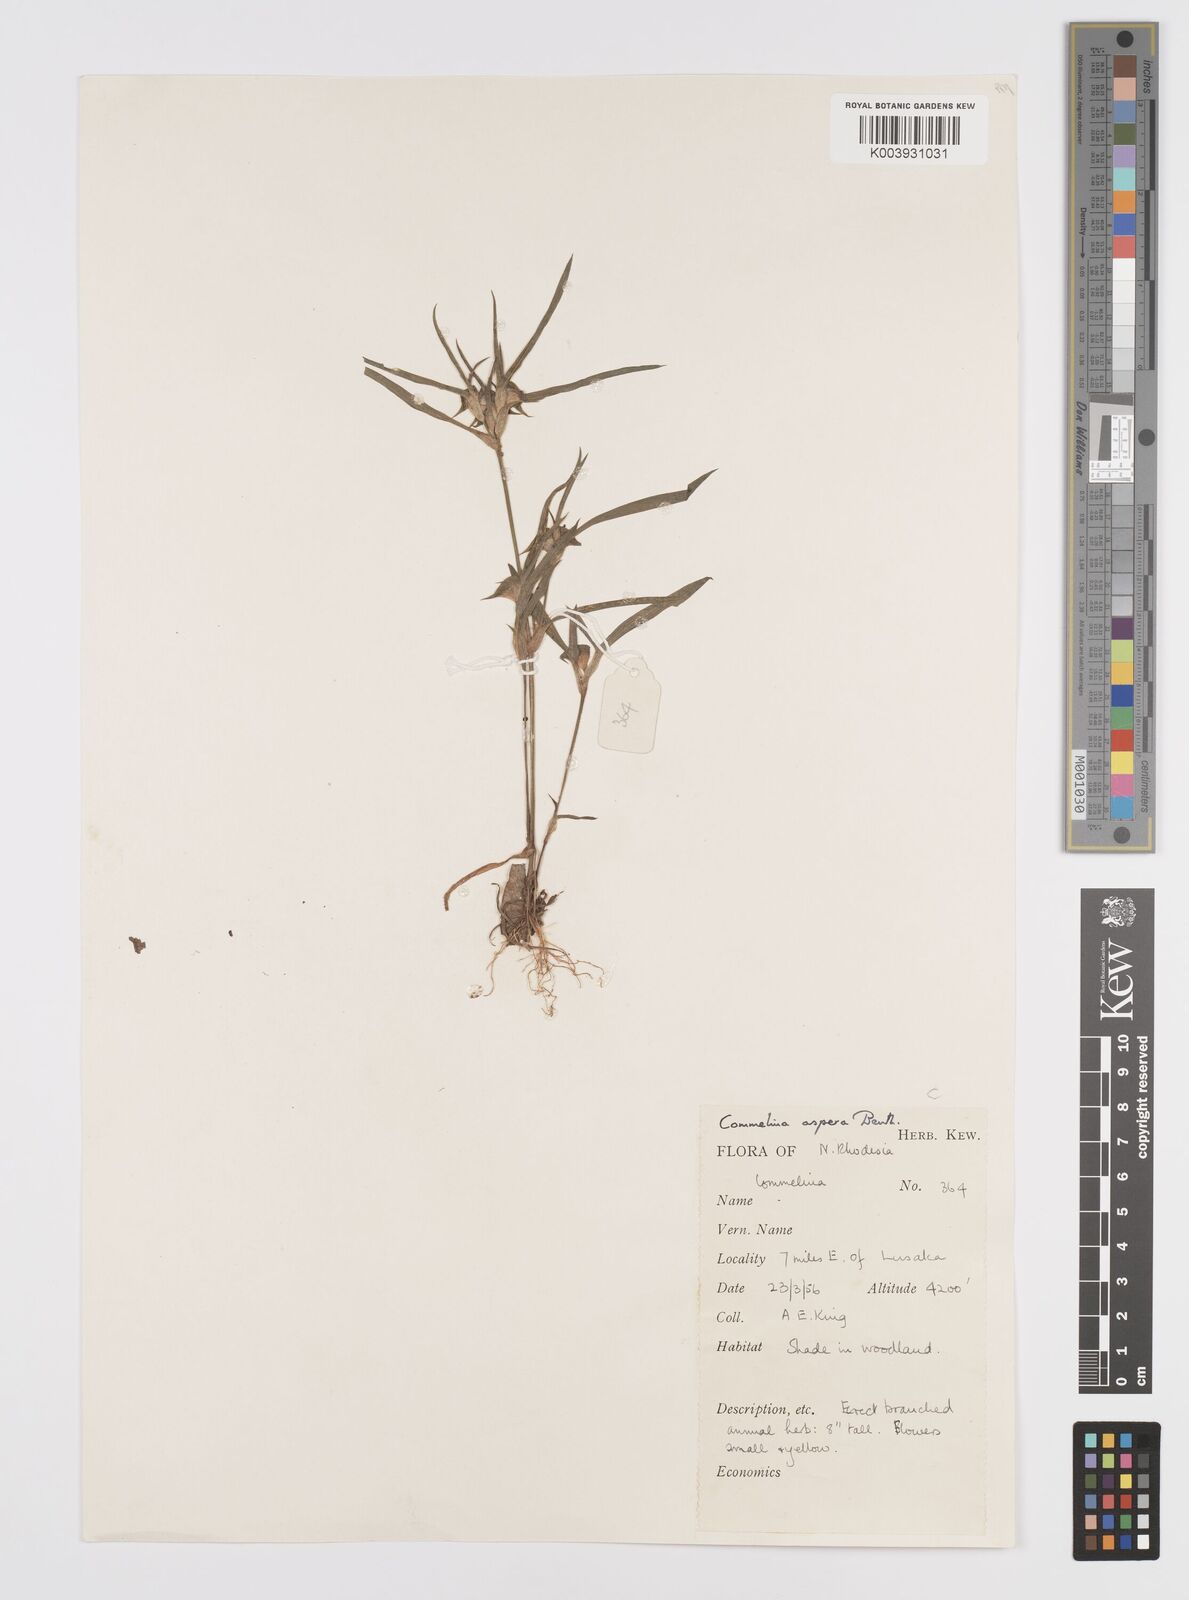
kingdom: Plantae
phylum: Tracheophyta
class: Liliopsida
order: Commelinales
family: Commelinaceae
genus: Commelina
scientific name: Commelina aspera
